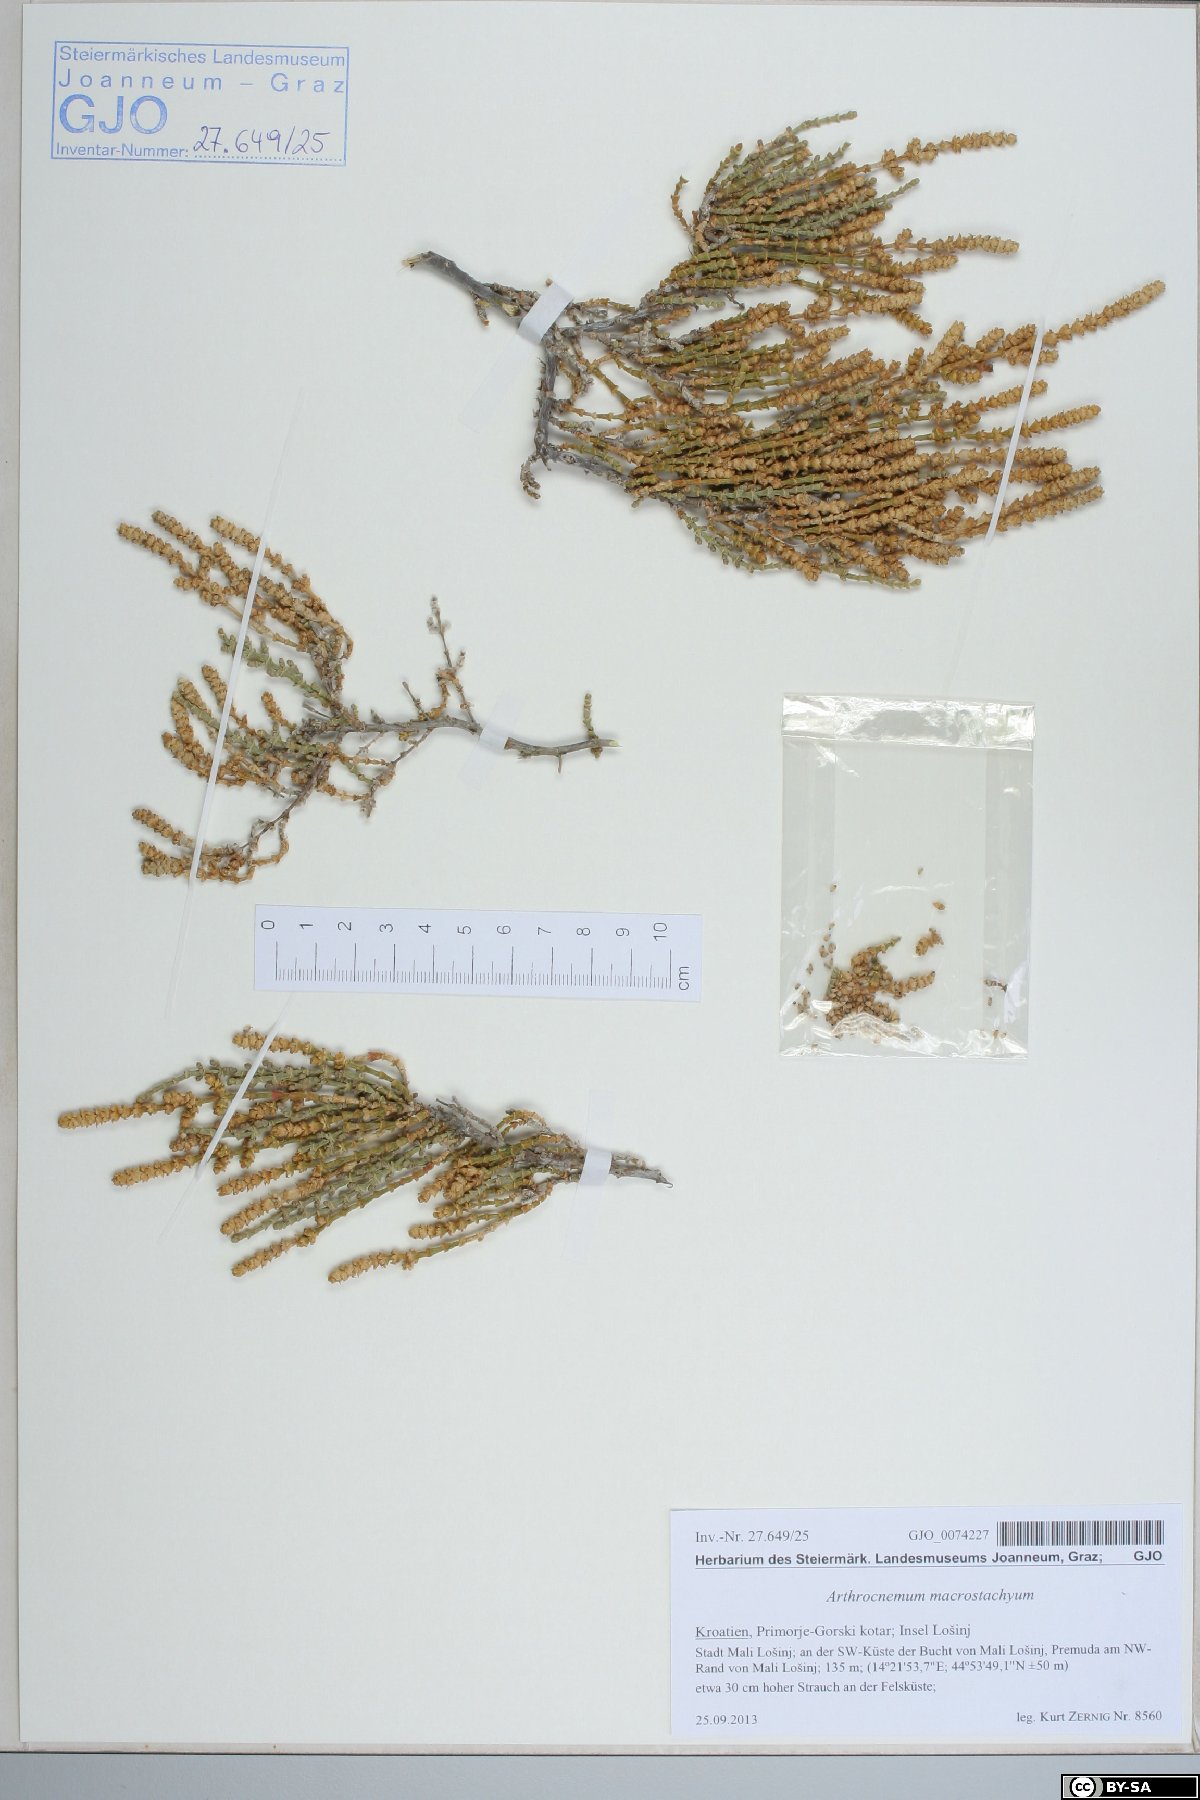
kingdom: Plantae
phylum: Tracheophyta
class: Magnoliopsida
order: Caryophyllales
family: Amaranthaceae
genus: Arthrocaulon
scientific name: Arthrocaulon macrostachyum
